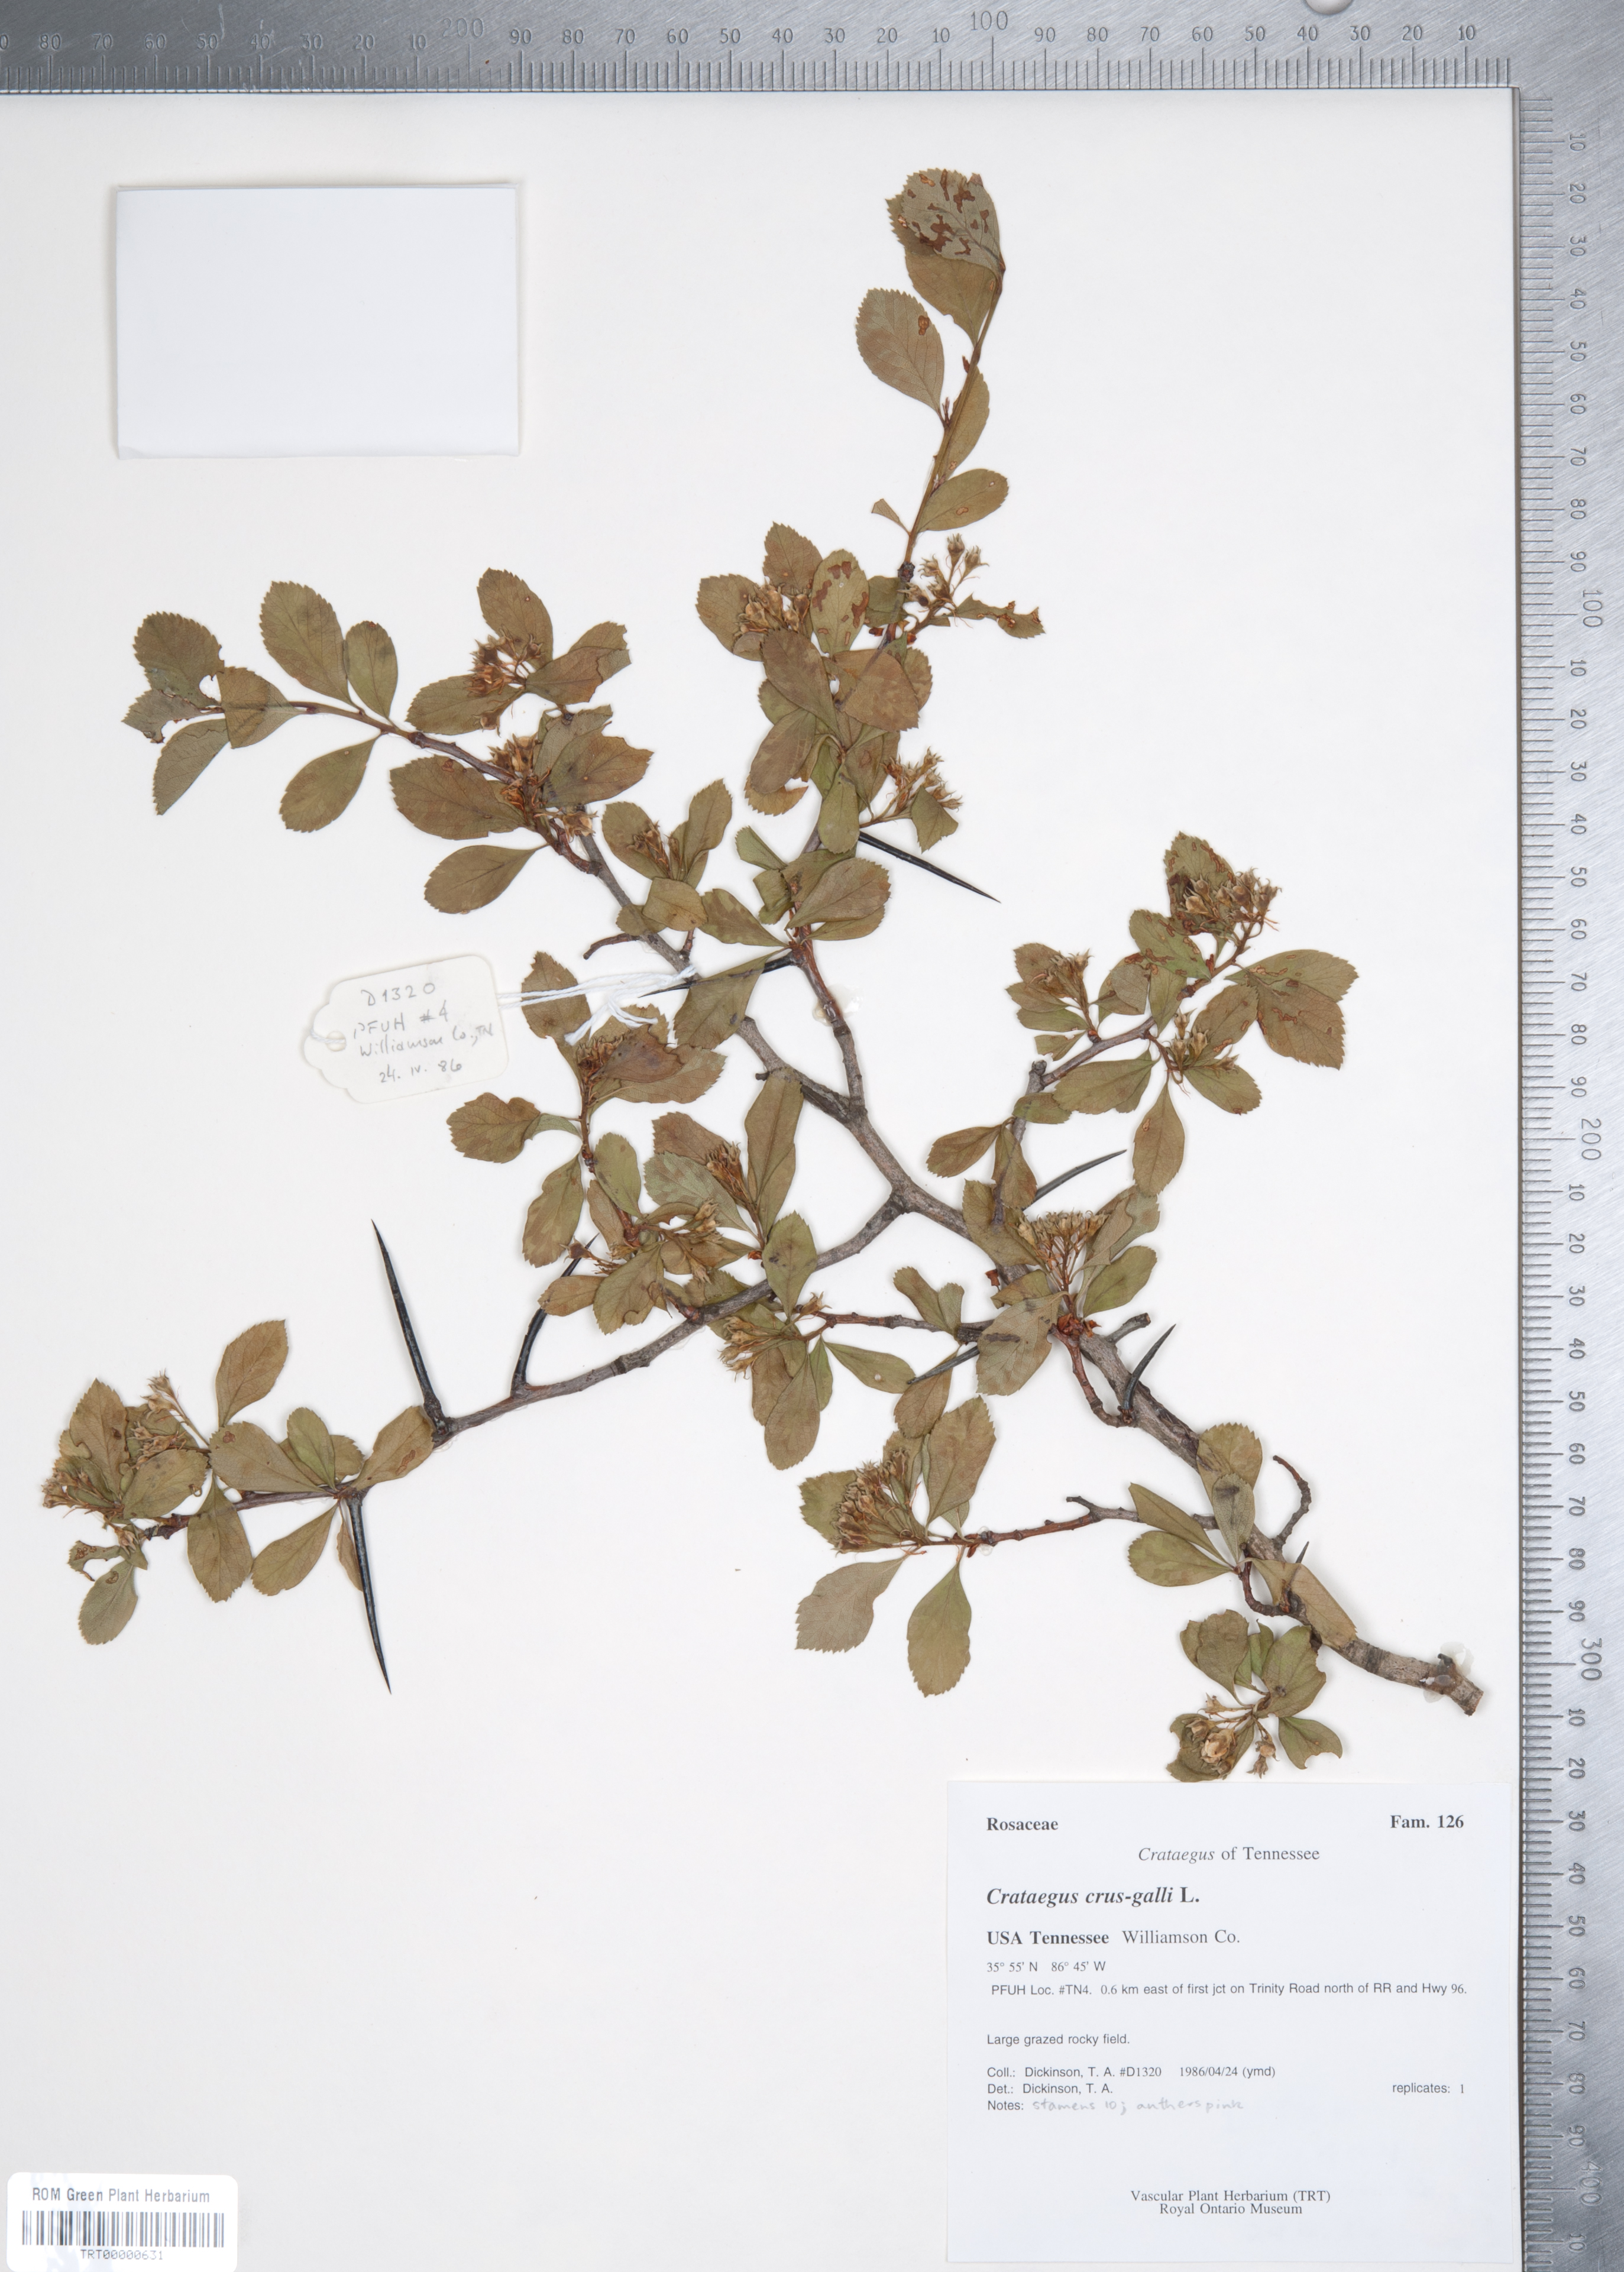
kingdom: Plantae
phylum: Tracheophyta
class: Magnoliopsida
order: Rosales
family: Rosaceae
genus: Crataegus
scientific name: Crataegus crus-galli
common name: Cockspurthorn
